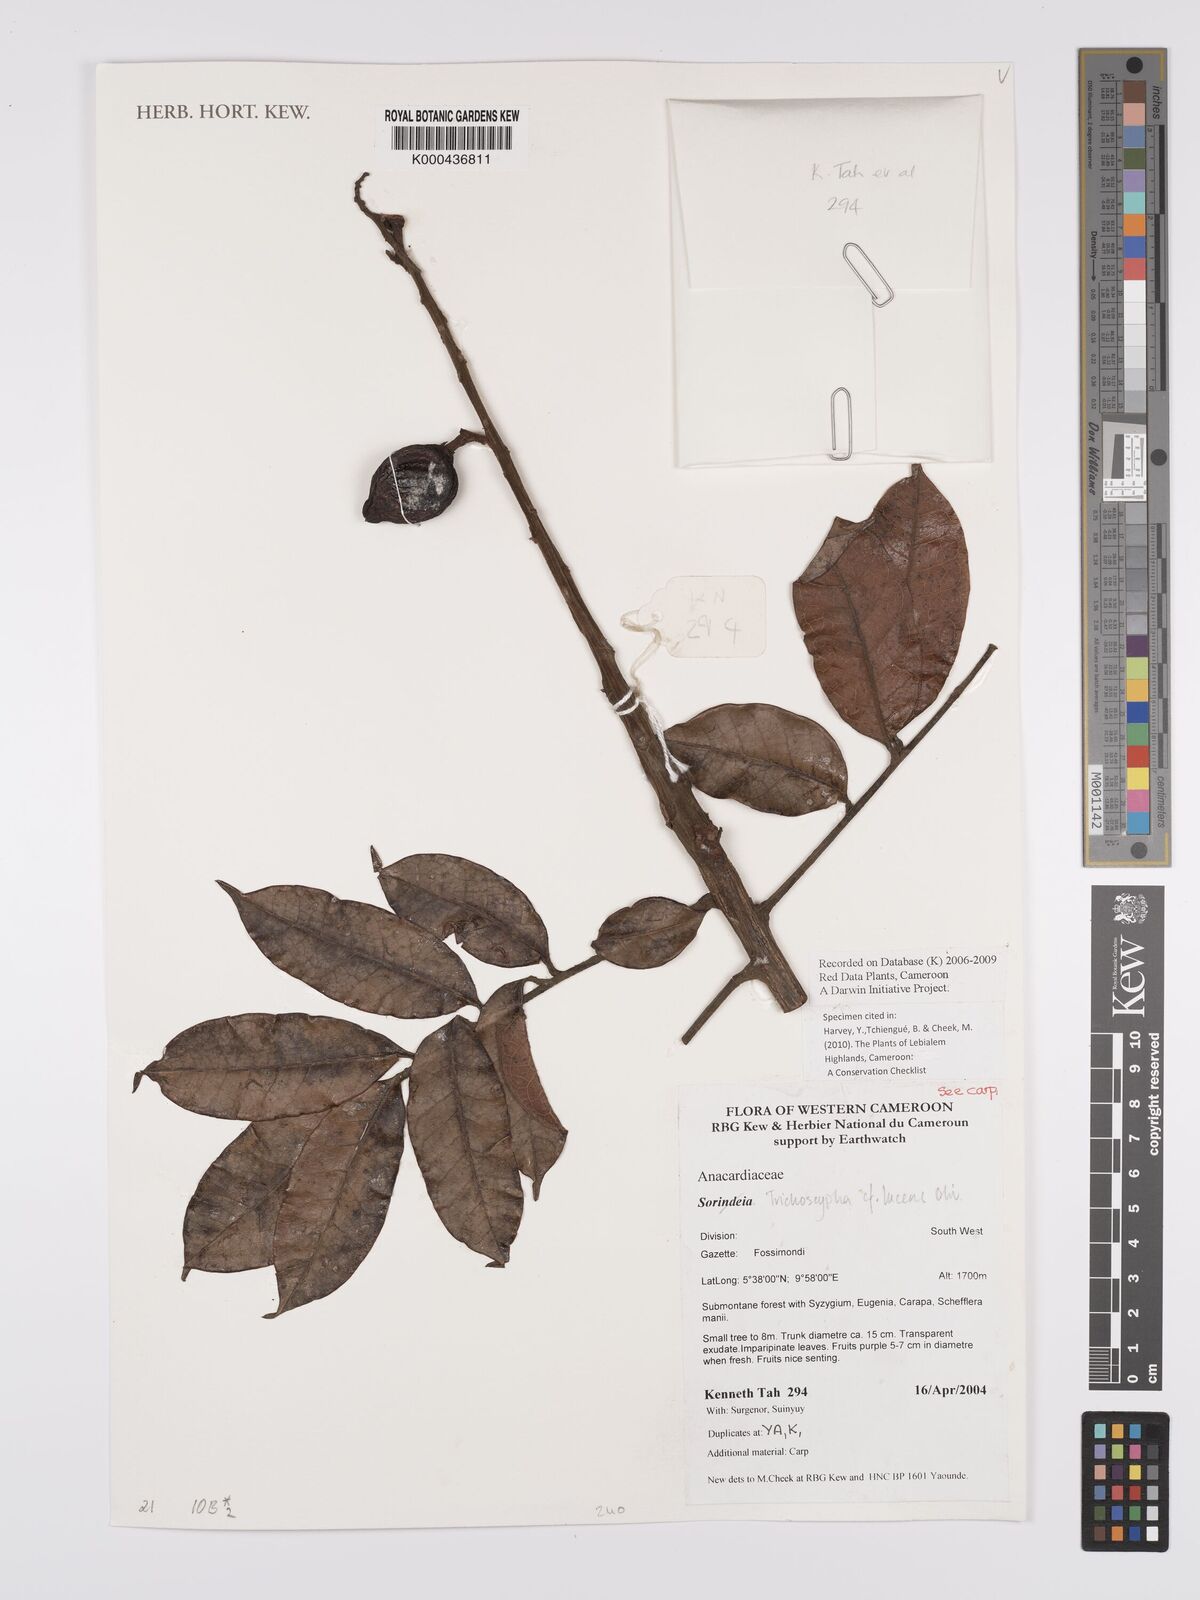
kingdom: Plantae
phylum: Tracheophyta
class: Magnoliopsida
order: Sapindales
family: Anacardiaceae
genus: Trichoscypha
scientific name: Trichoscypha lucens
